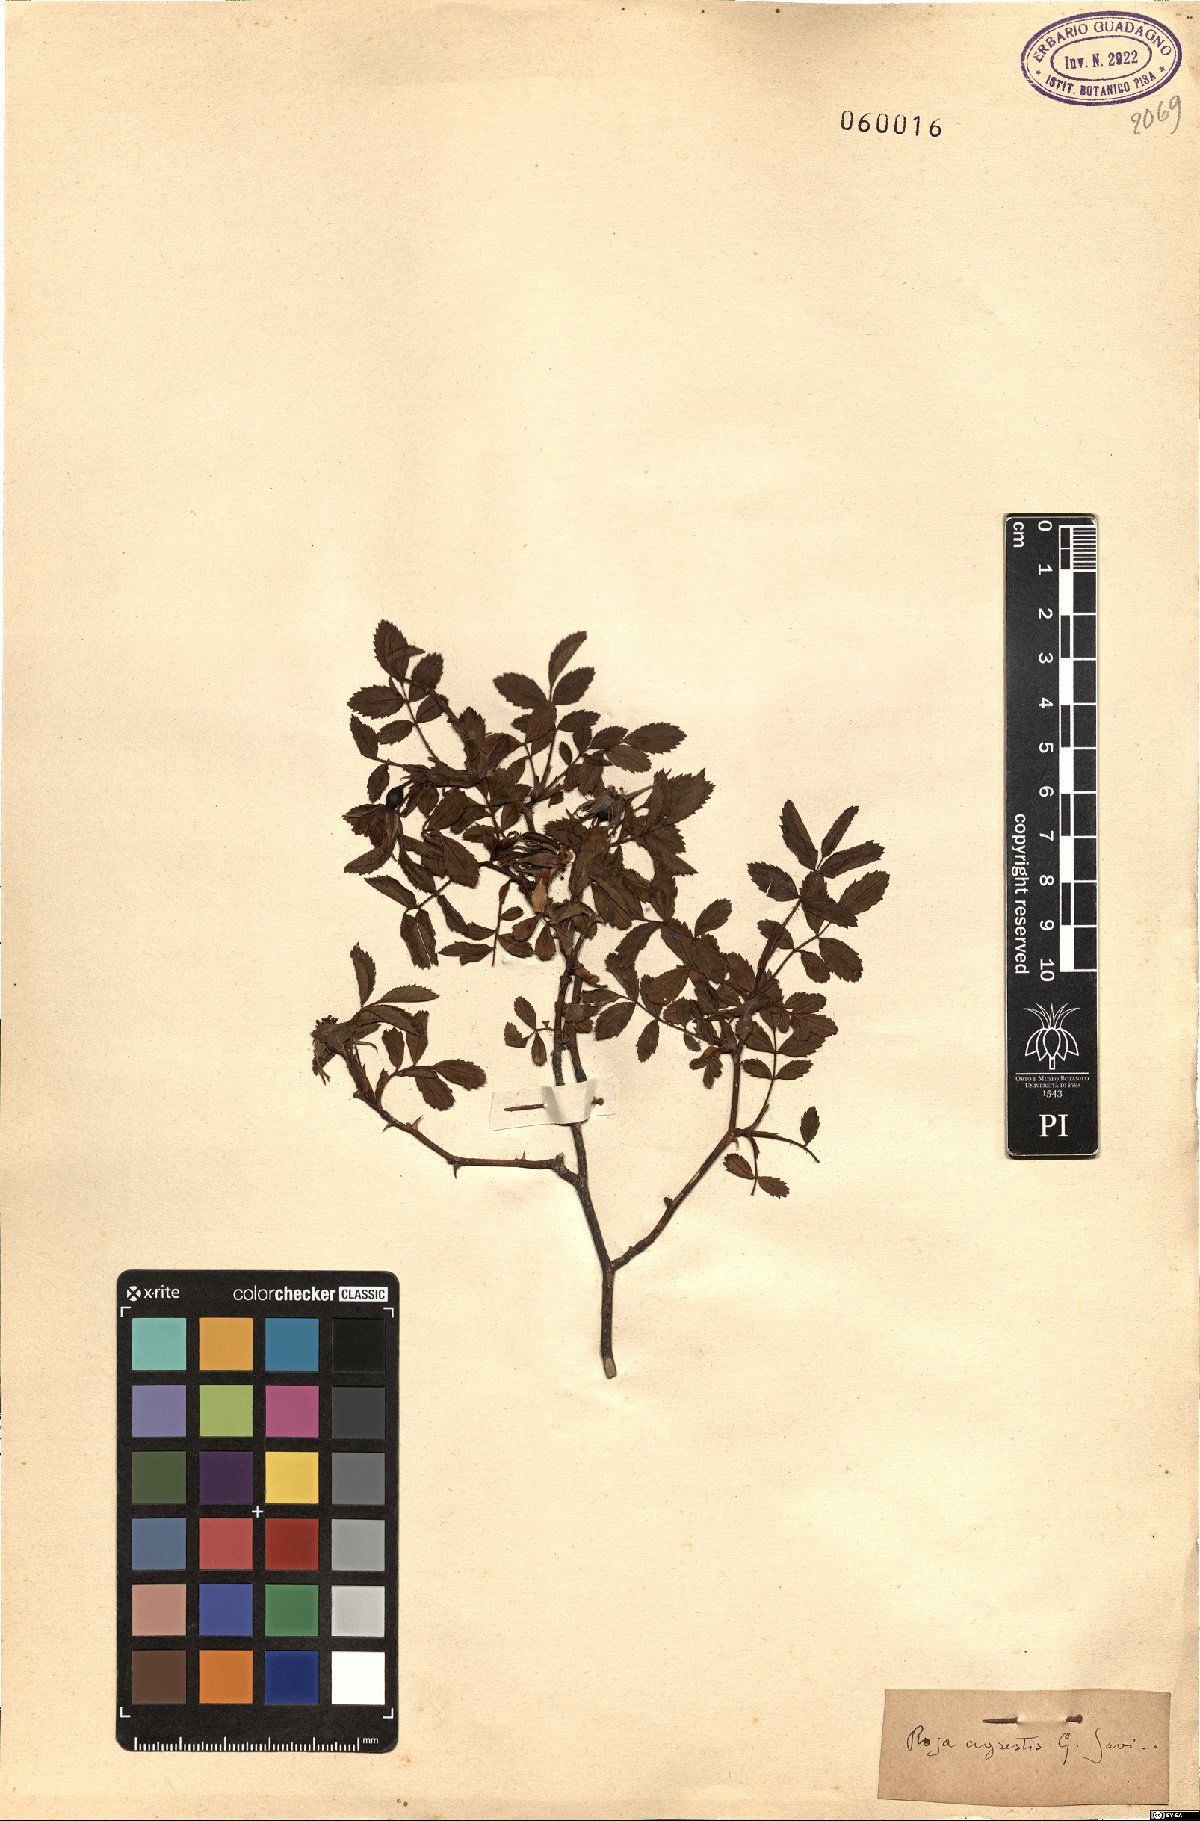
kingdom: Plantae
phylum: Tracheophyta
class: Magnoliopsida
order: Rosales
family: Rosaceae
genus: Rosa
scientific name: Rosa agrestis
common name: Fieldbriar
